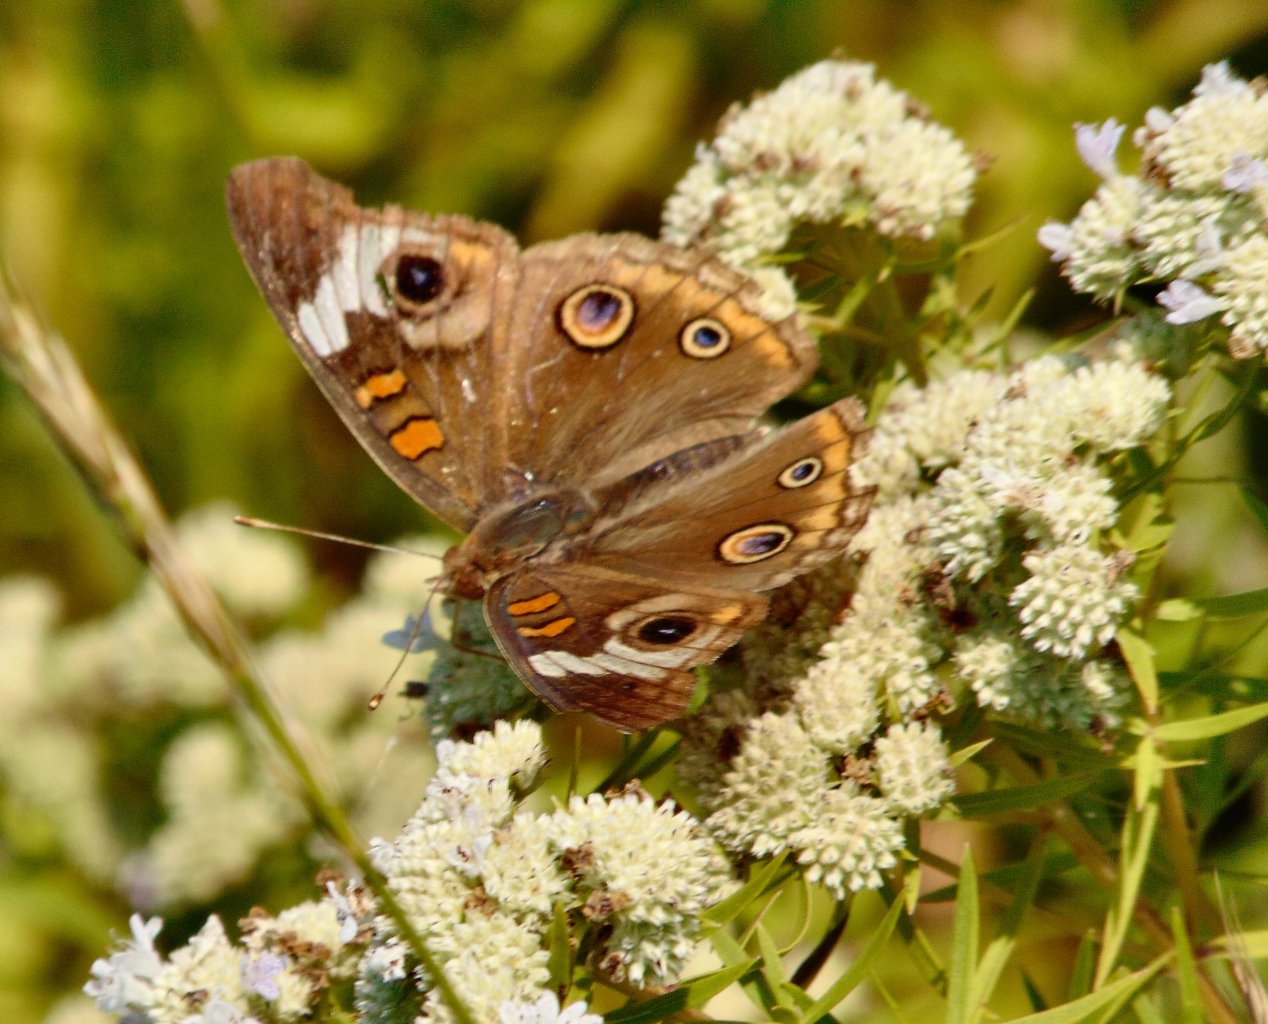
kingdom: Animalia
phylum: Arthropoda
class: Insecta
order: Lepidoptera
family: Nymphalidae
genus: Junonia
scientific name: Junonia coenia
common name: Common Buckeye
